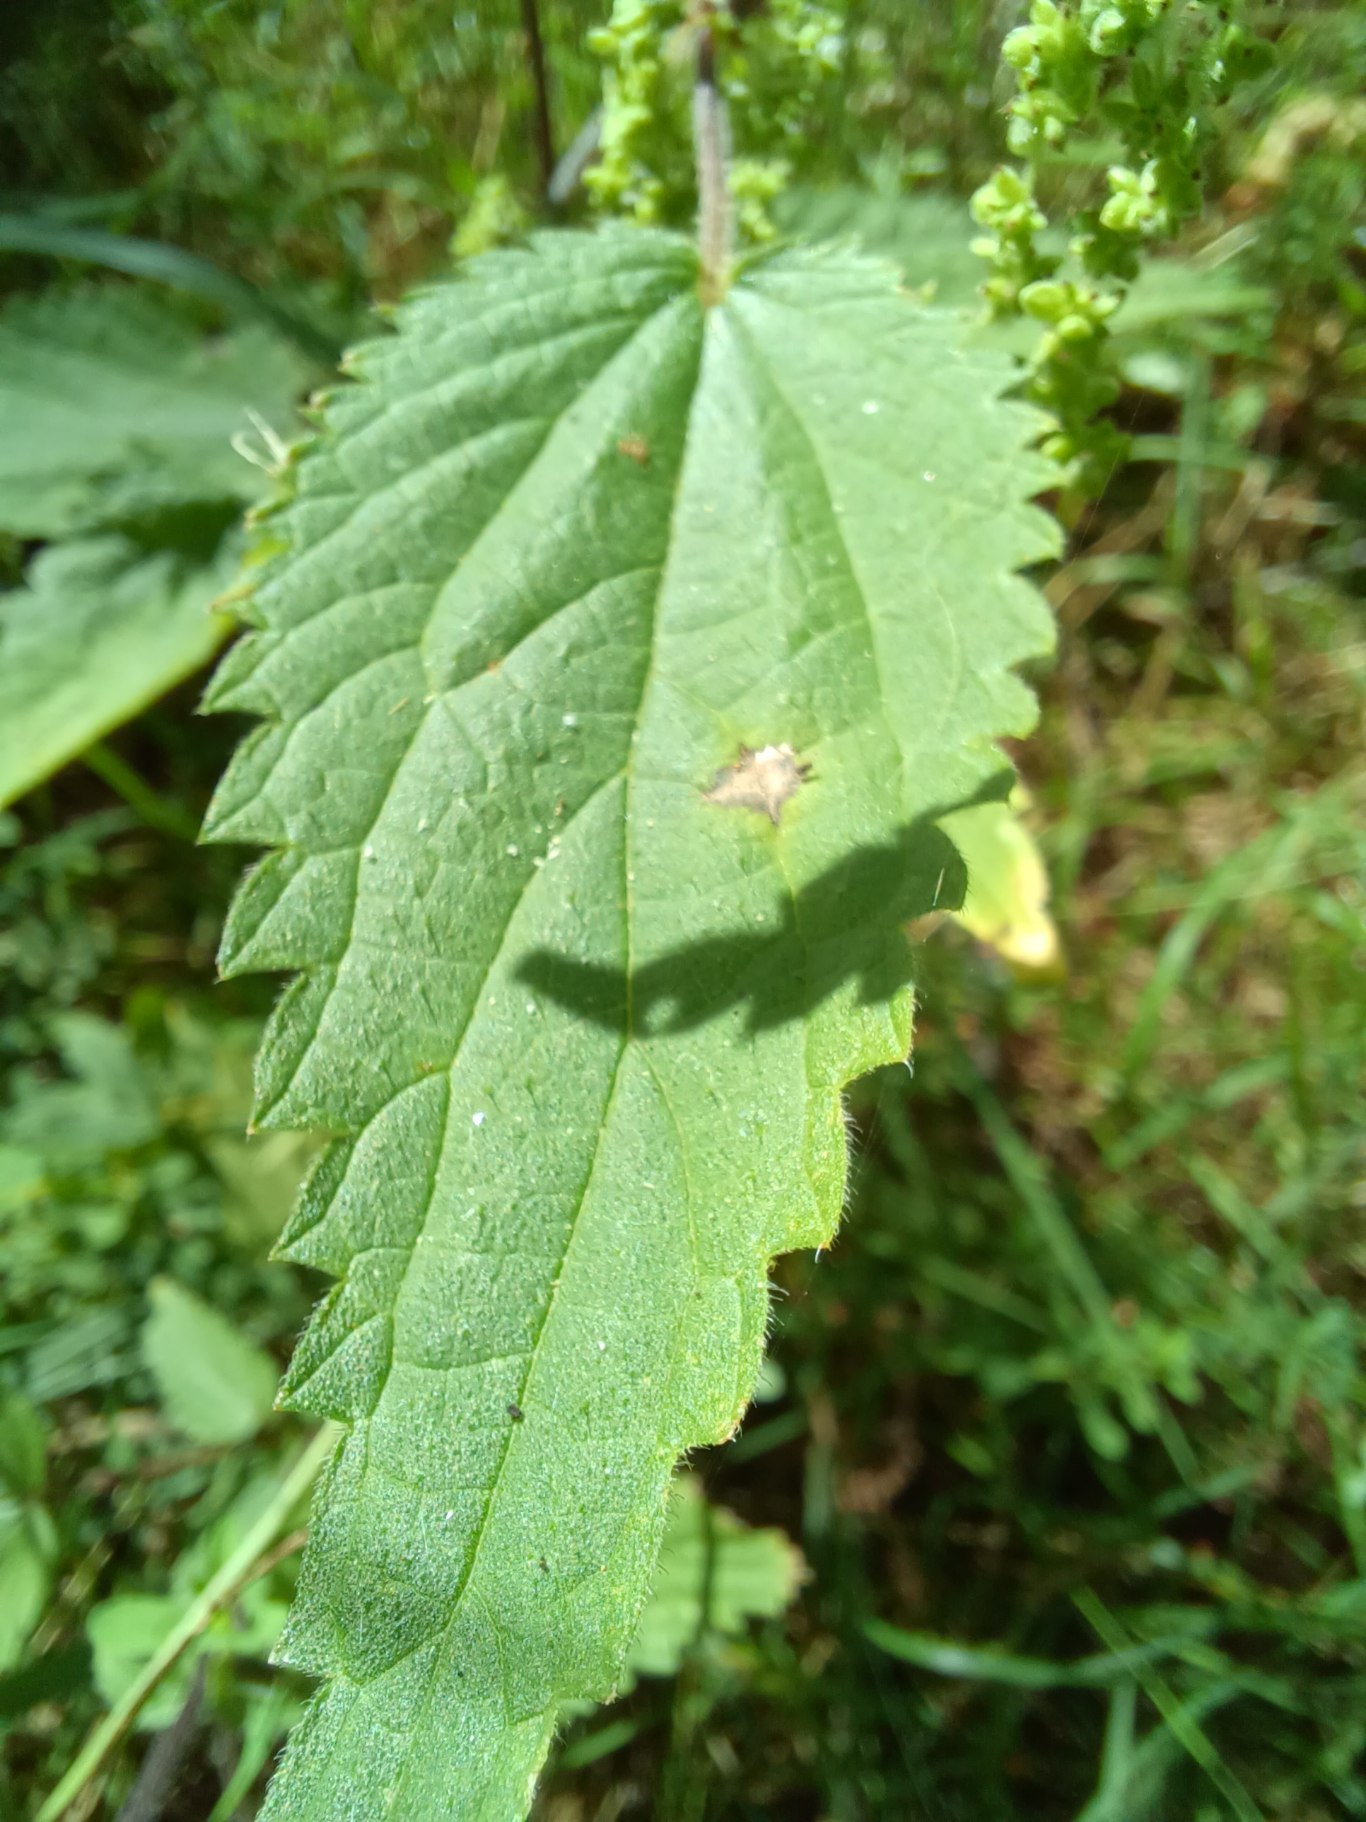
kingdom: Plantae
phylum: Tracheophyta
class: Magnoliopsida
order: Rosales
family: Urticaceae
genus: Urtica
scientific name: Urtica dioica
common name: Stor nælde
